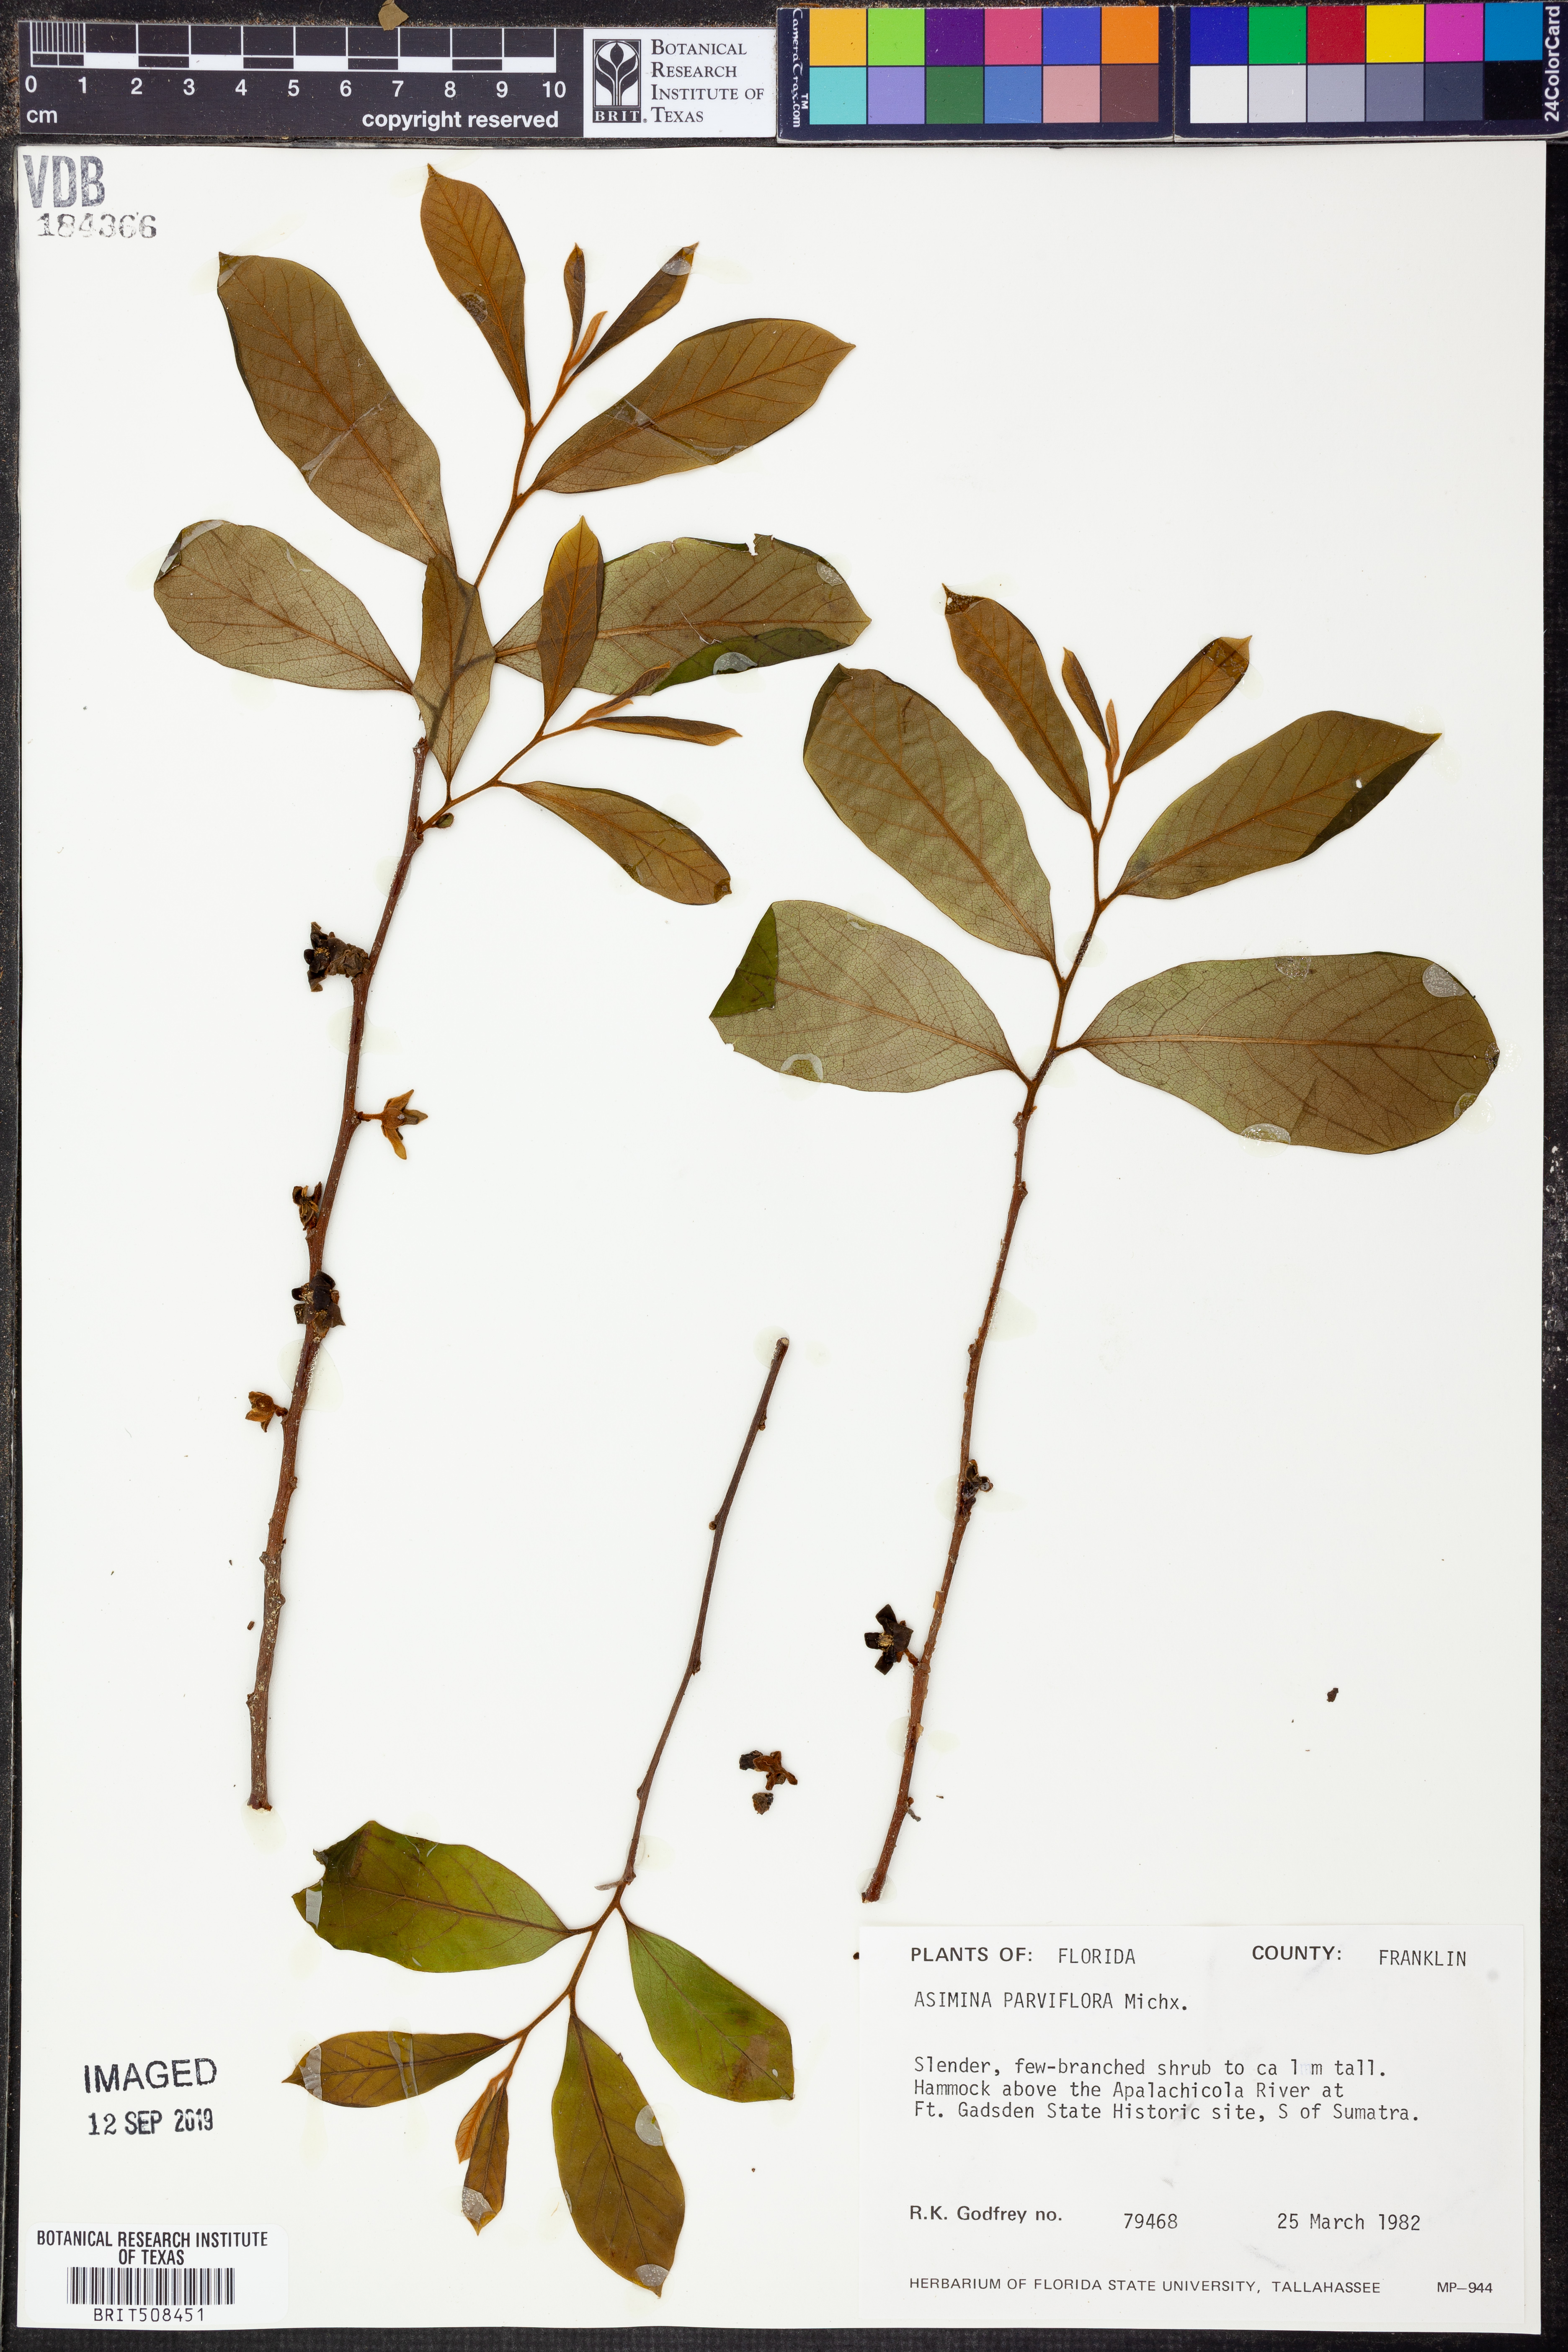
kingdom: Plantae
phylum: Tracheophyta
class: Magnoliopsida
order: Magnoliales
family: Annonaceae
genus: Asimina
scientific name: Asimina parviflora
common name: Dwarf pawpaw
